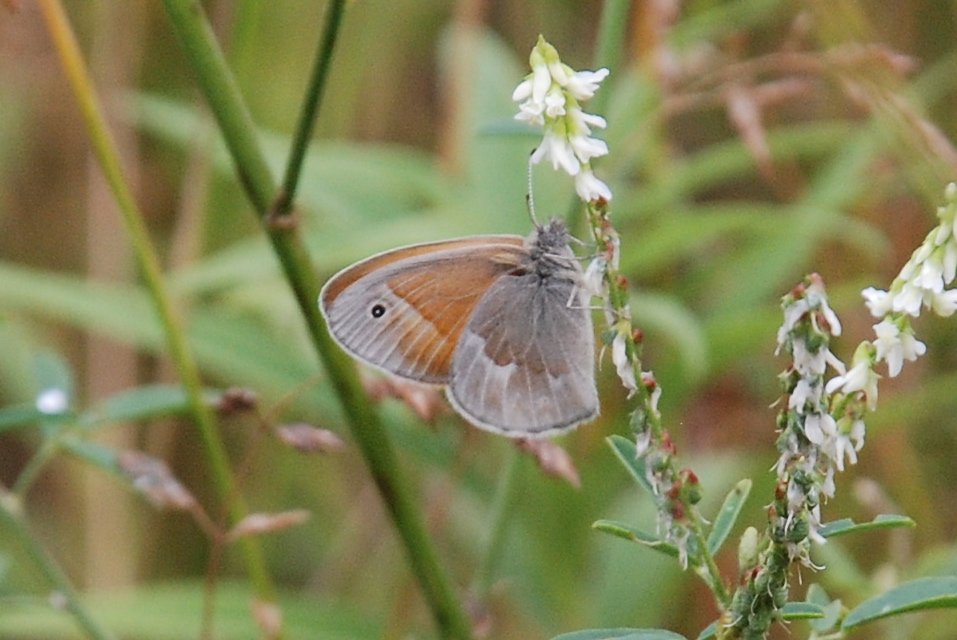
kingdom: Animalia
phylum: Arthropoda
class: Insecta
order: Lepidoptera
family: Nymphalidae
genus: Coenonympha
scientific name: Coenonympha tullia
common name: Large Heath
